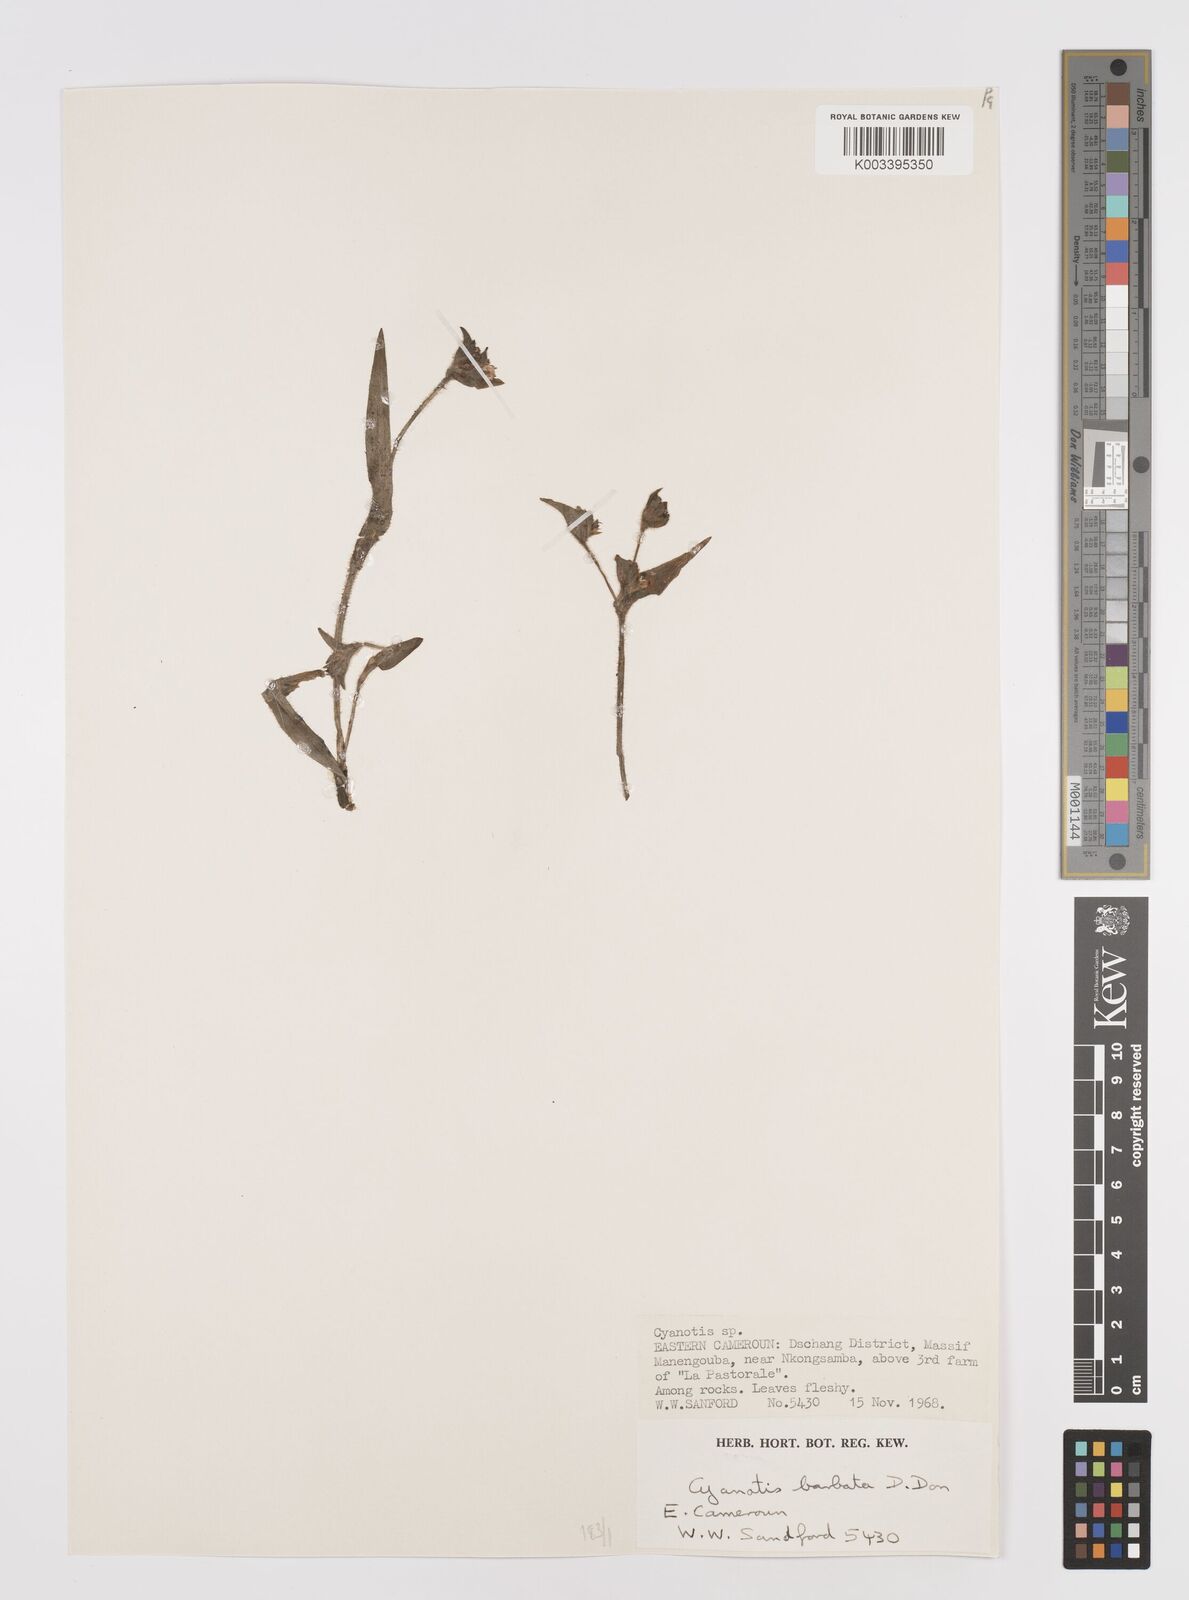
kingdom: Plantae
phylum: Tracheophyta
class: Liliopsida
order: Commelinales
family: Commelinaceae
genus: Cyanotis
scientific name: Cyanotis vaga
